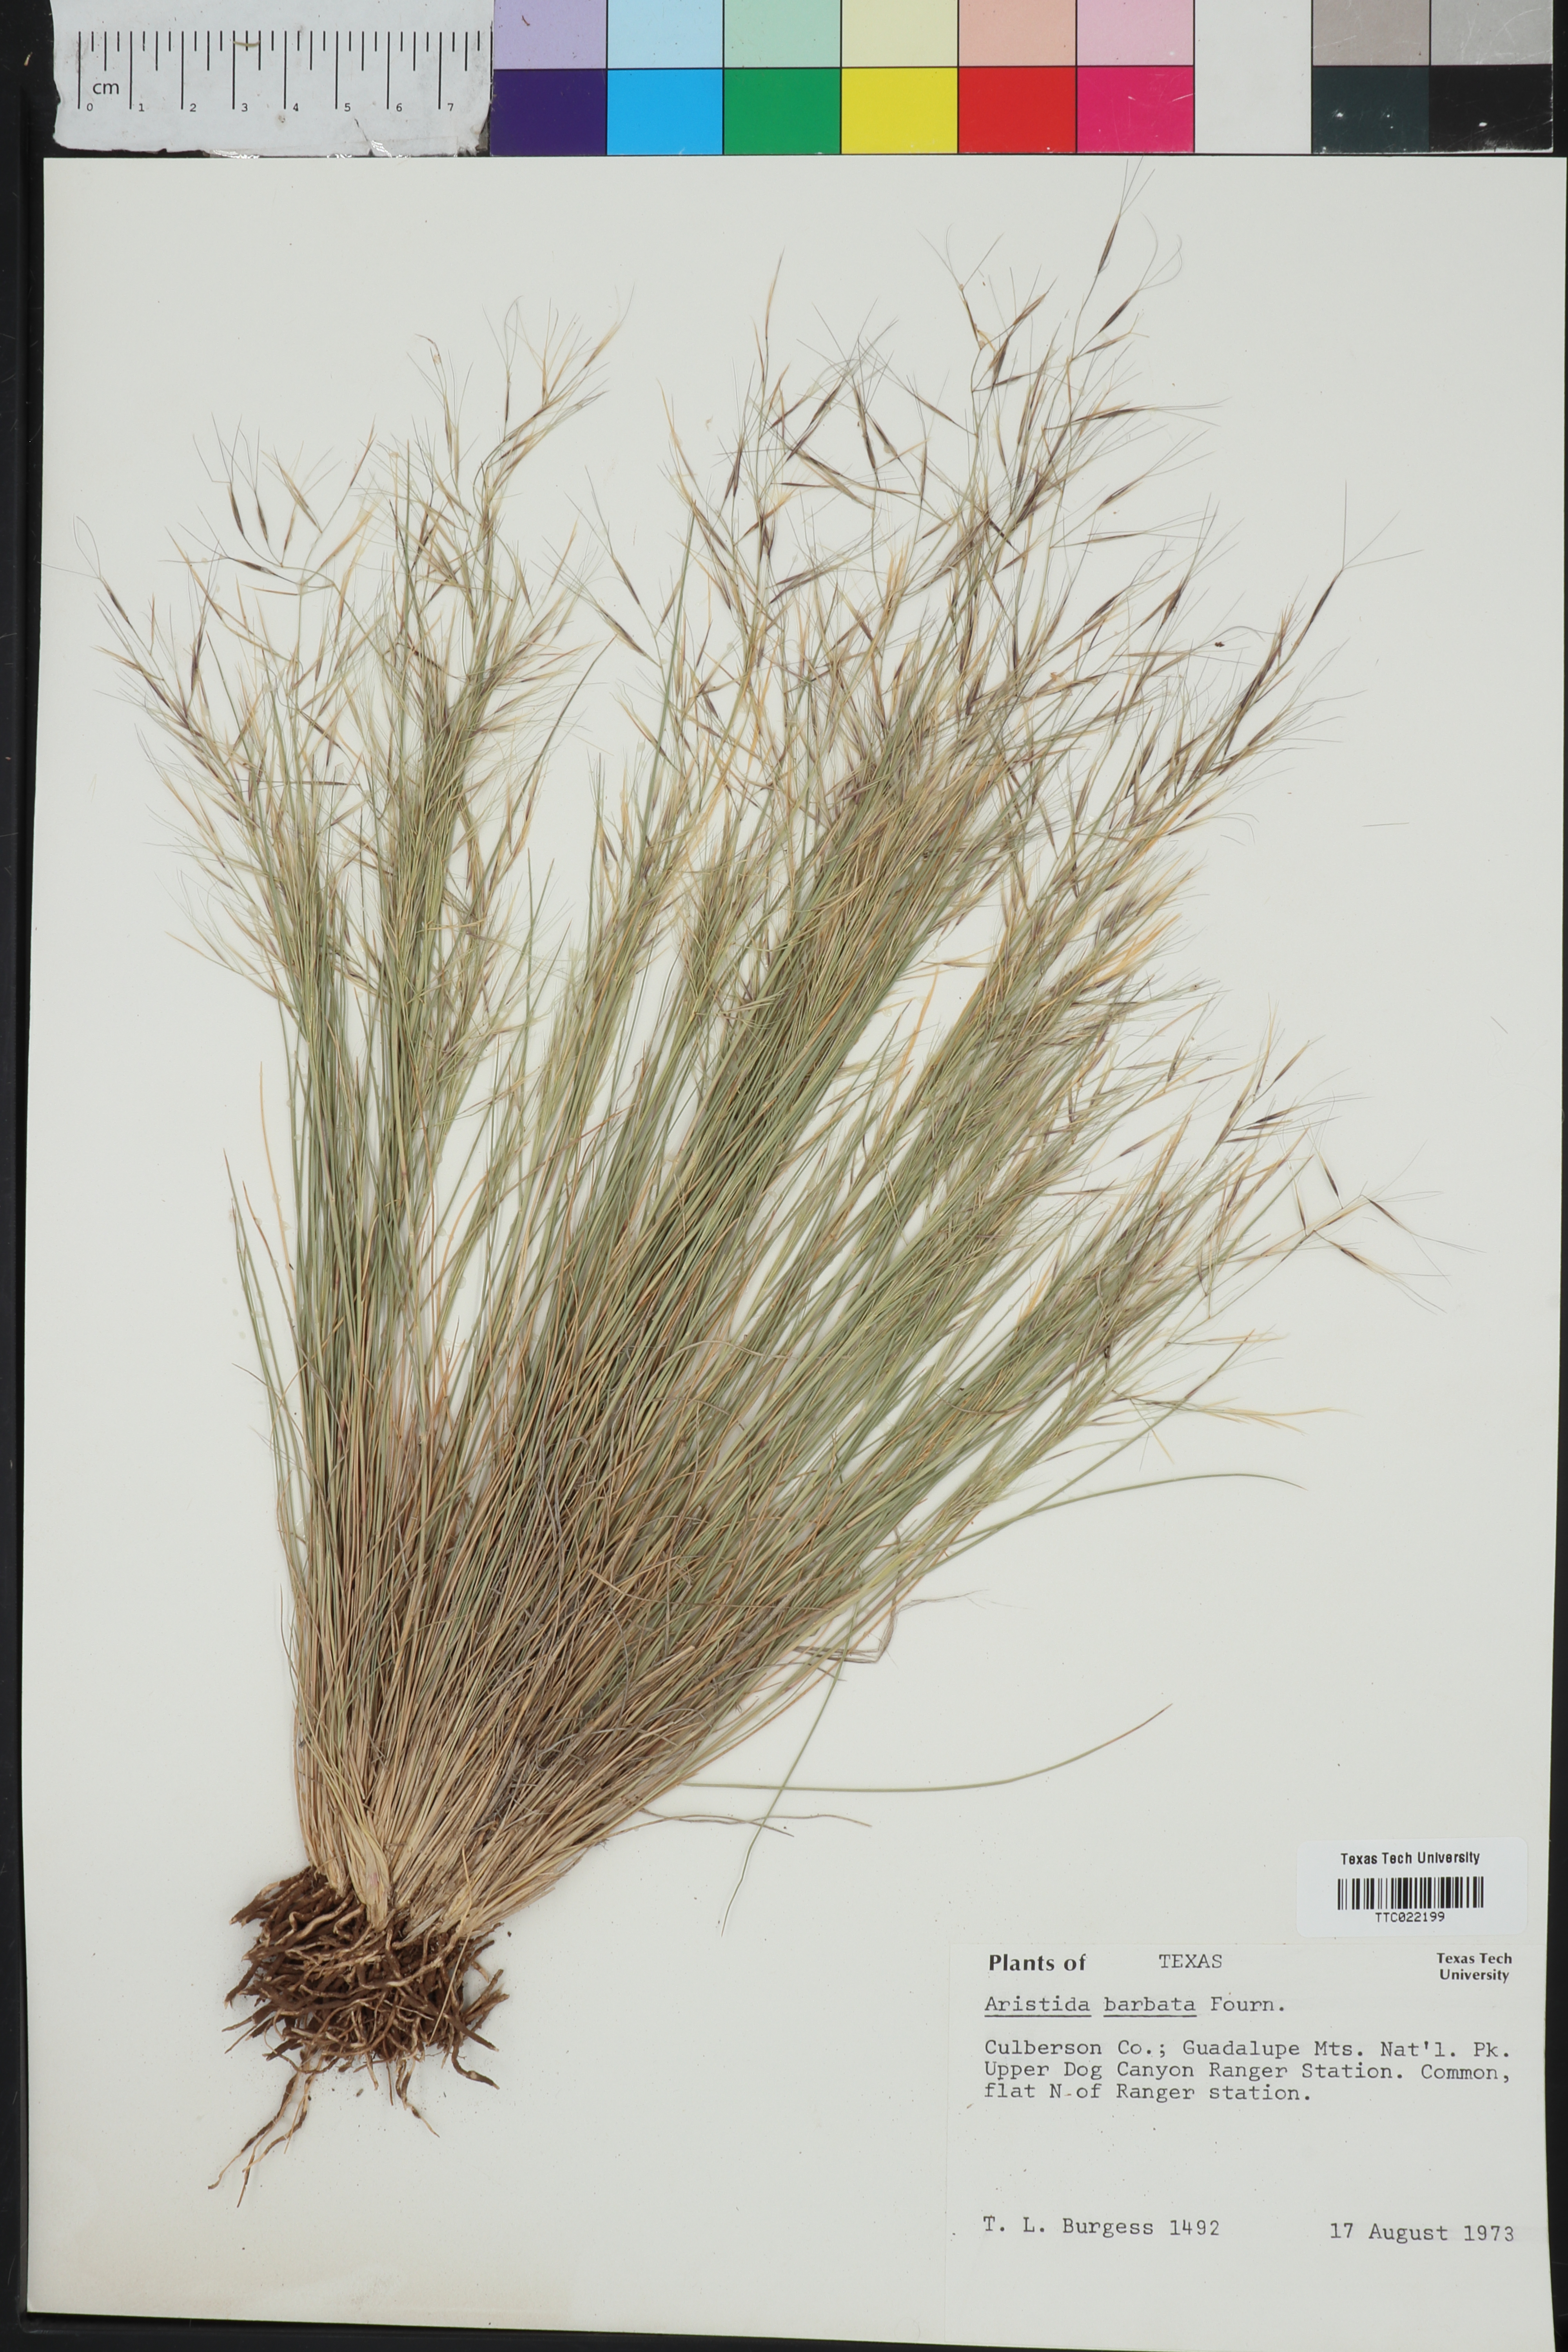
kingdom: Plantae
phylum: Tracheophyta
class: Liliopsida
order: Poales
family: Poaceae
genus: Aristida
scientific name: Aristida barbata
